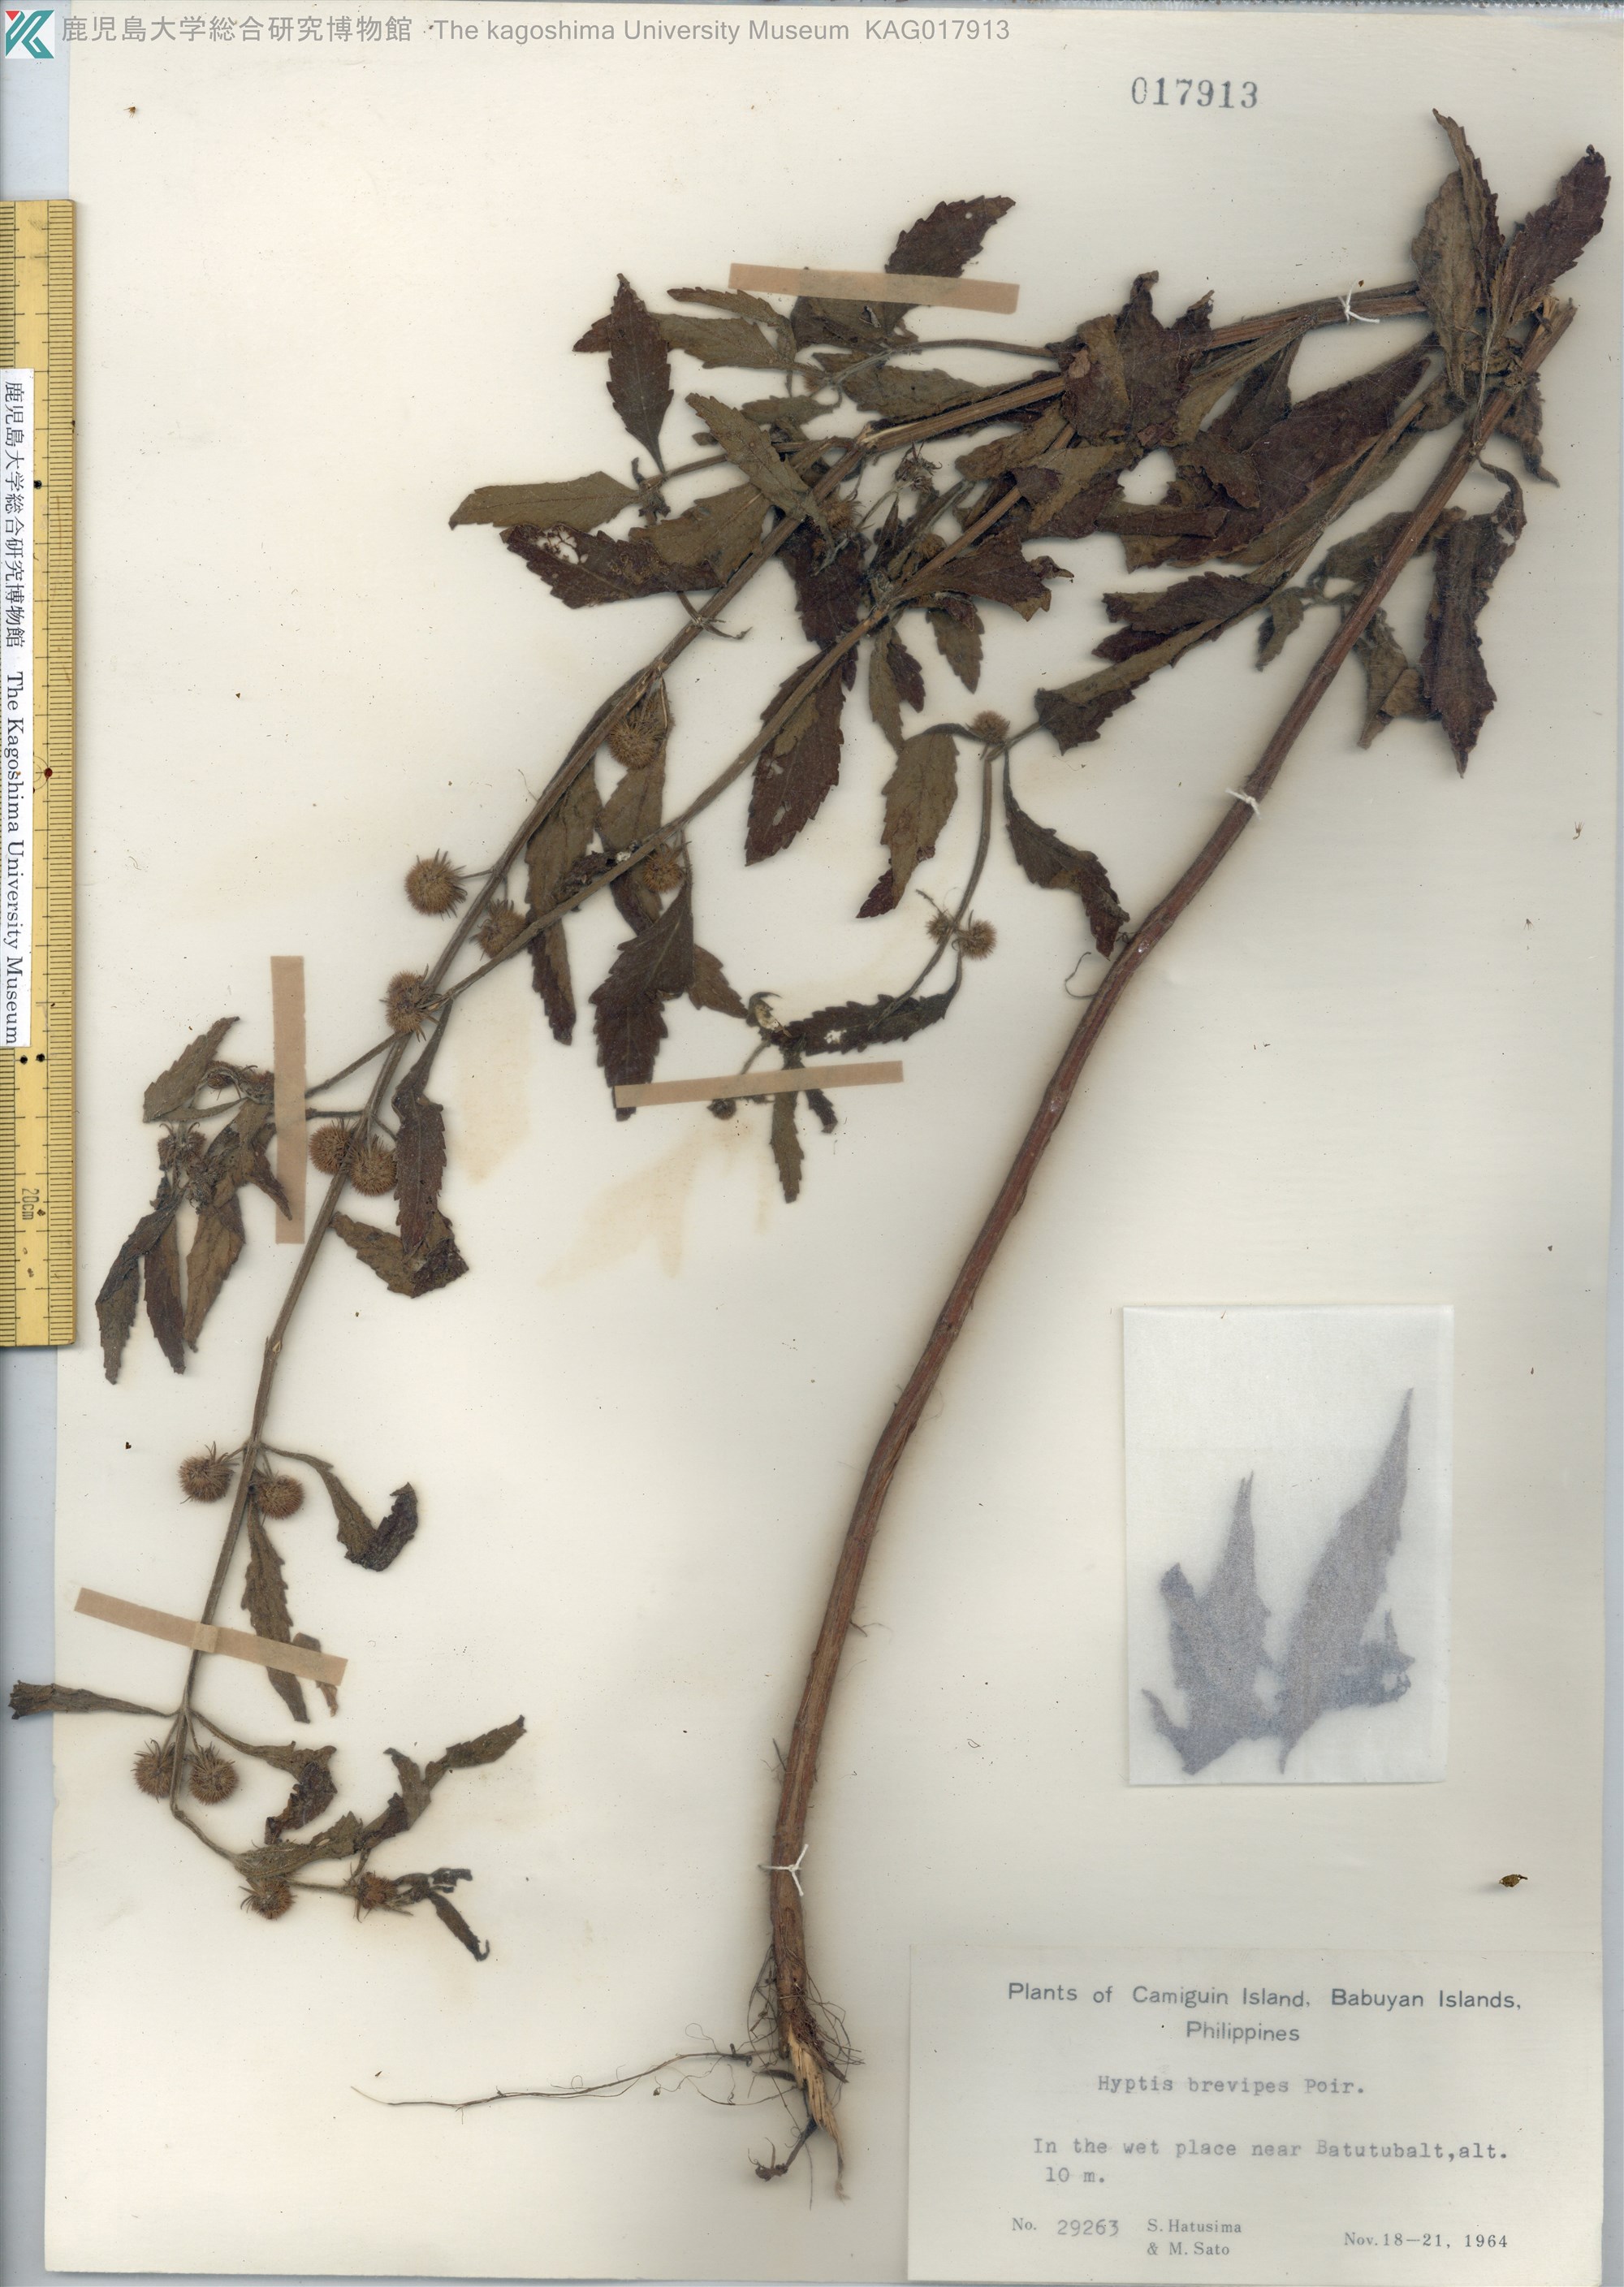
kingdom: Plantae
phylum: Tracheophyta
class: Magnoliopsida
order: Lamiales
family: Lamiaceae
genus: Hyptis
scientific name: Hyptis brevipes
